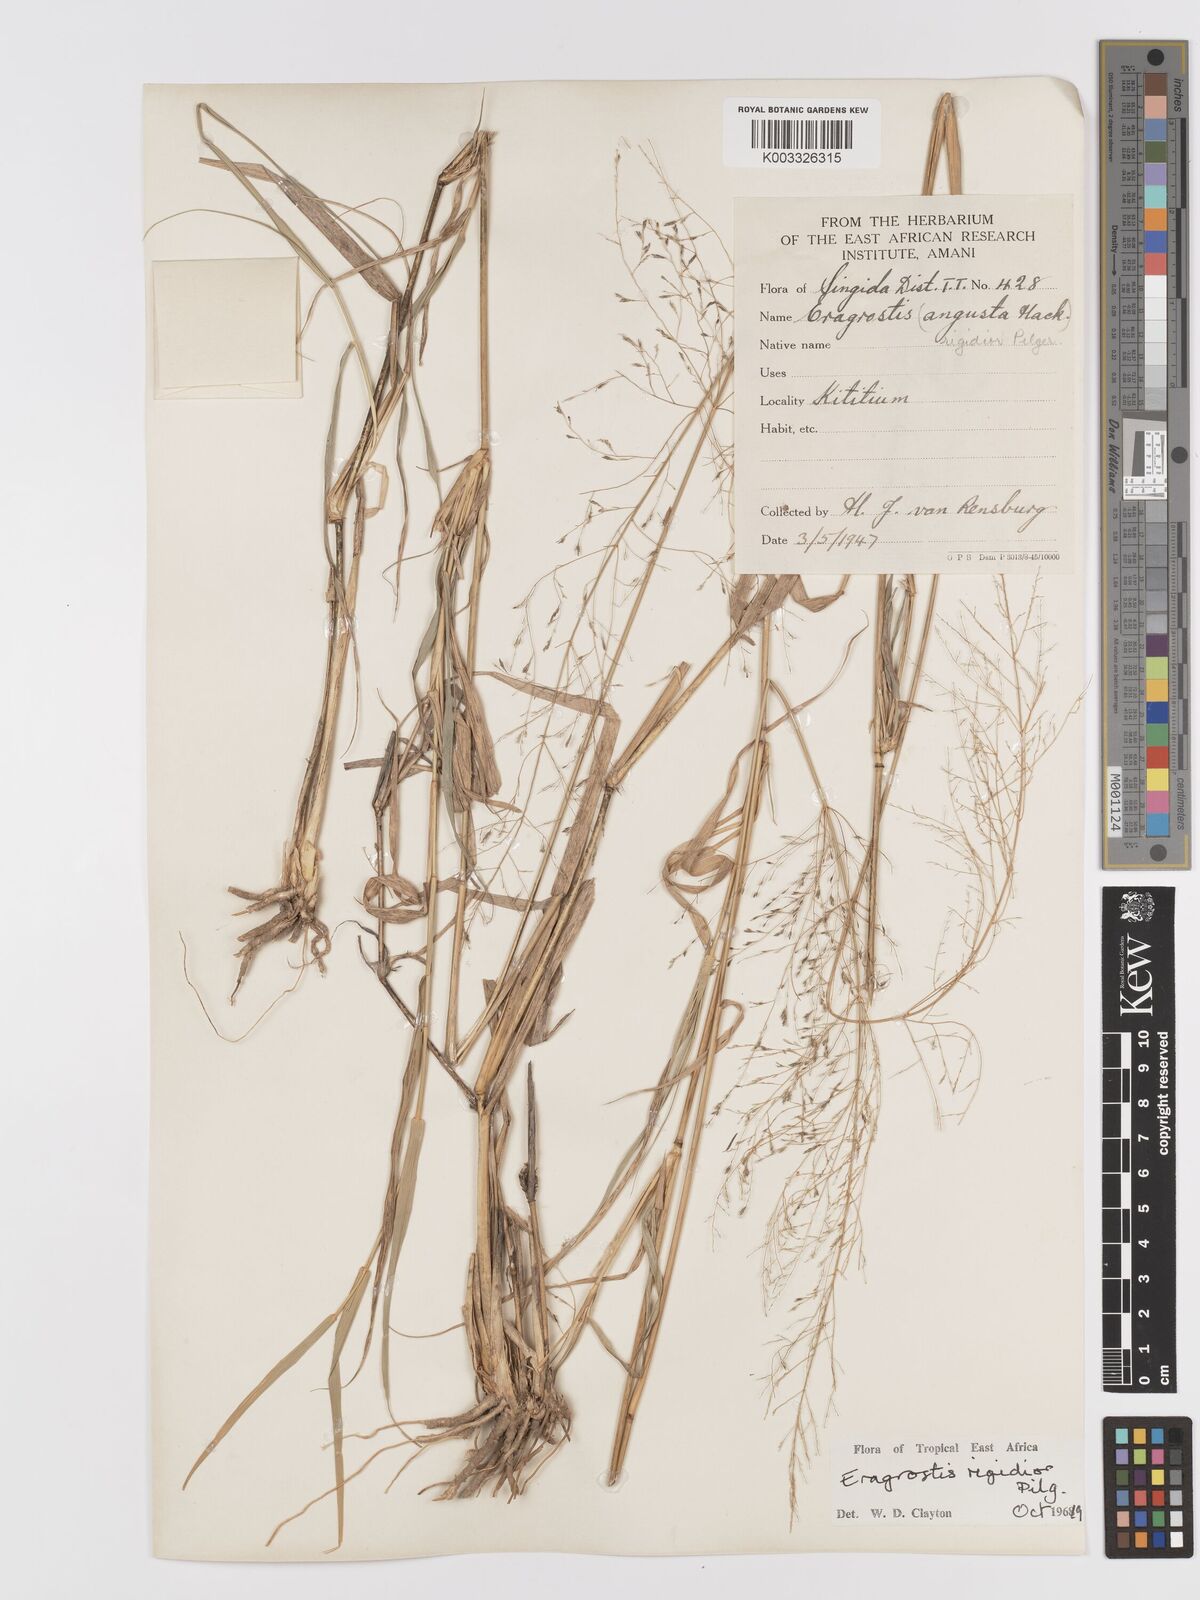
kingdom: Plantae
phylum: Tracheophyta
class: Liliopsida
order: Poales
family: Poaceae
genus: Eragrostis
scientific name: Eragrostis cylindriflora
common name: Cylinderflower lovegrass
